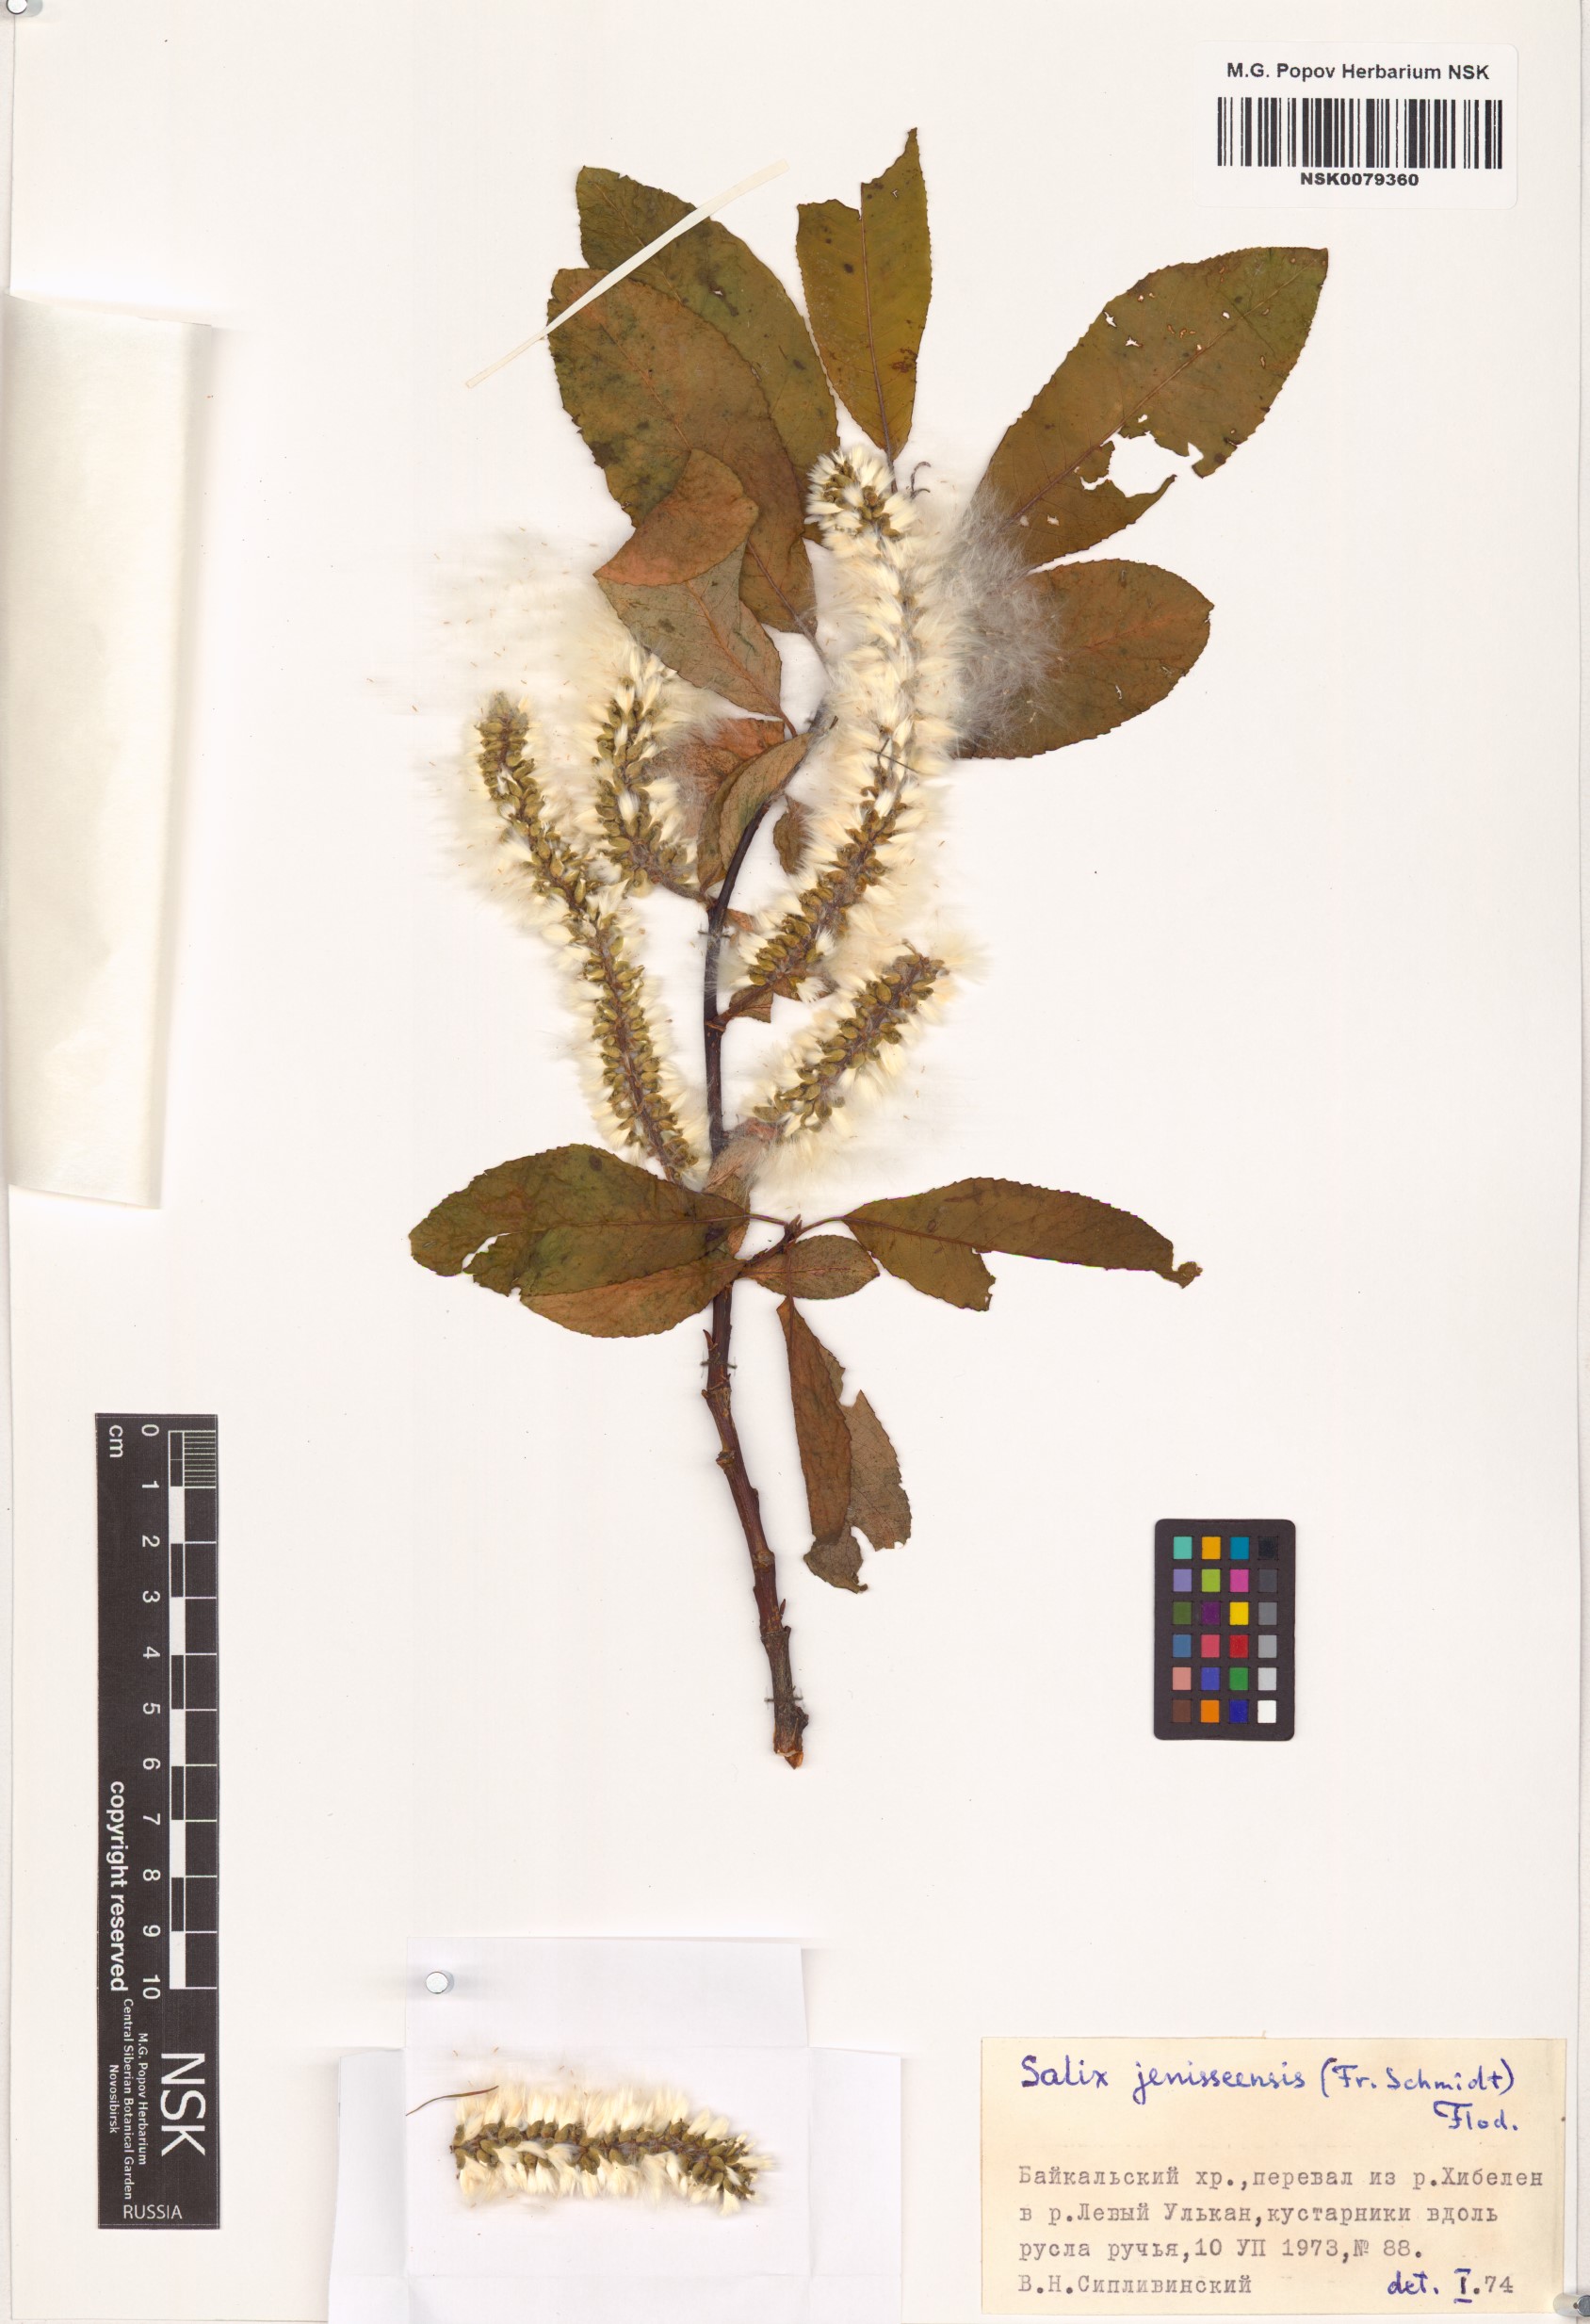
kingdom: Plantae
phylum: Tracheophyta
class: Magnoliopsida
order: Malpighiales
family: Salicaceae
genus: Salix
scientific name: Salix jenisseensis
